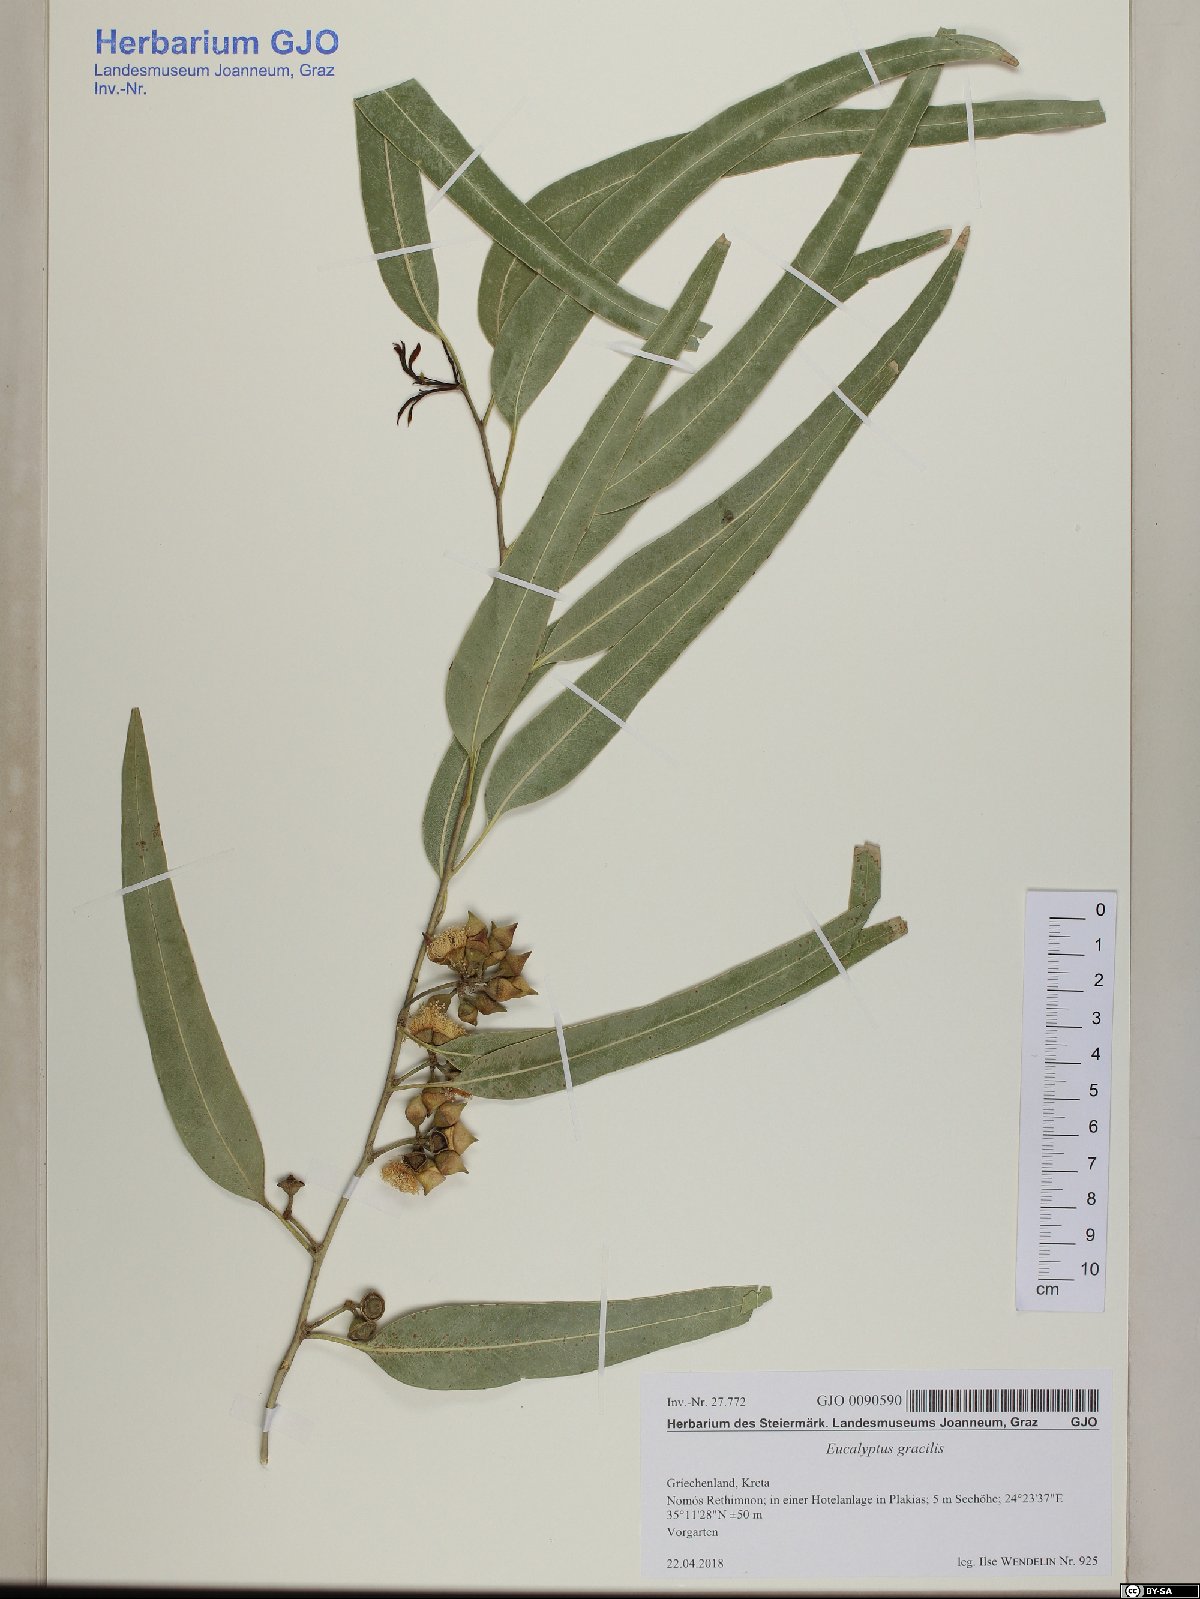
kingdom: Plantae
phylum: Tracheophyta
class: Magnoliopsida
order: Myrtales
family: Myrtaceae
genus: Eucalyptus
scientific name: Eucalyptus gracilis
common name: White mallee
